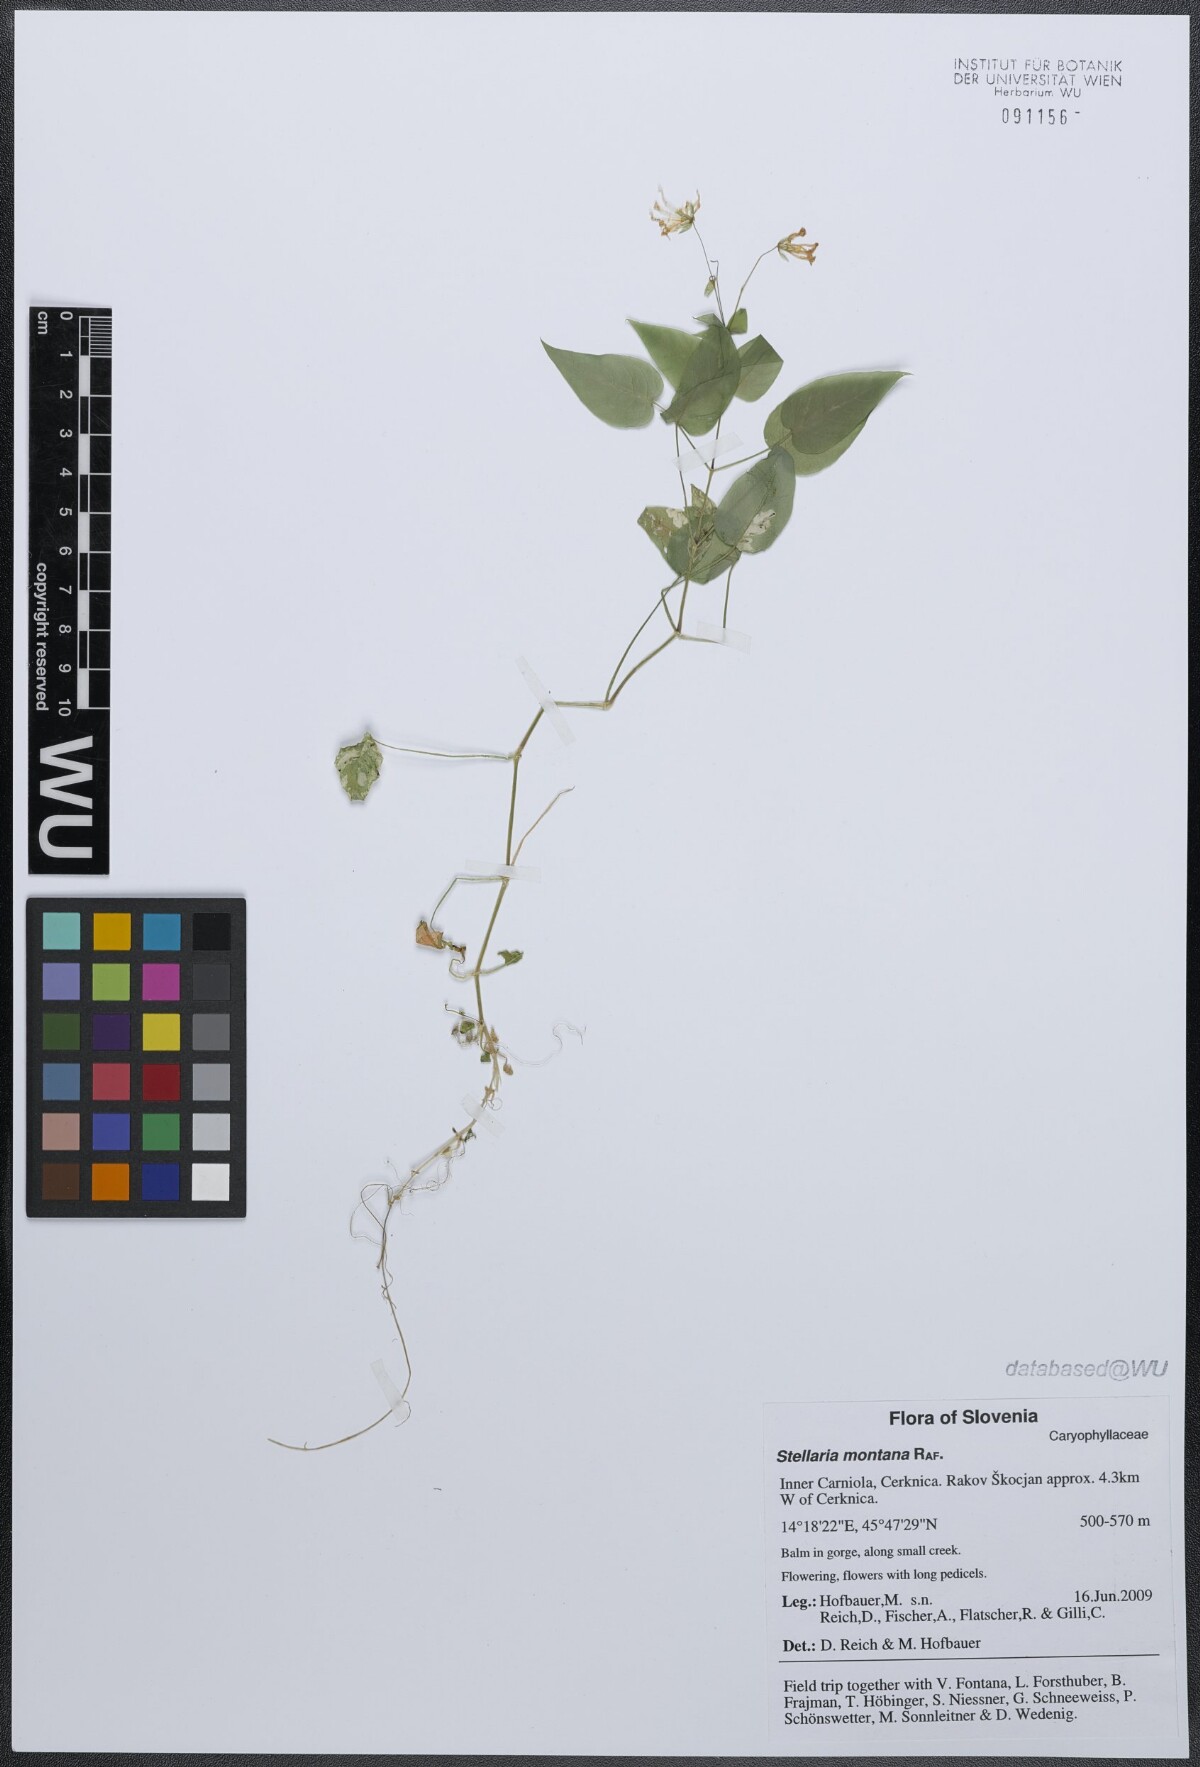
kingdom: Plantae
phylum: Tracheophyta
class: Magnoliopsida
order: Caryophyllales
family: Caryophyllaceae
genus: Stellaria
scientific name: Stellaria montana
